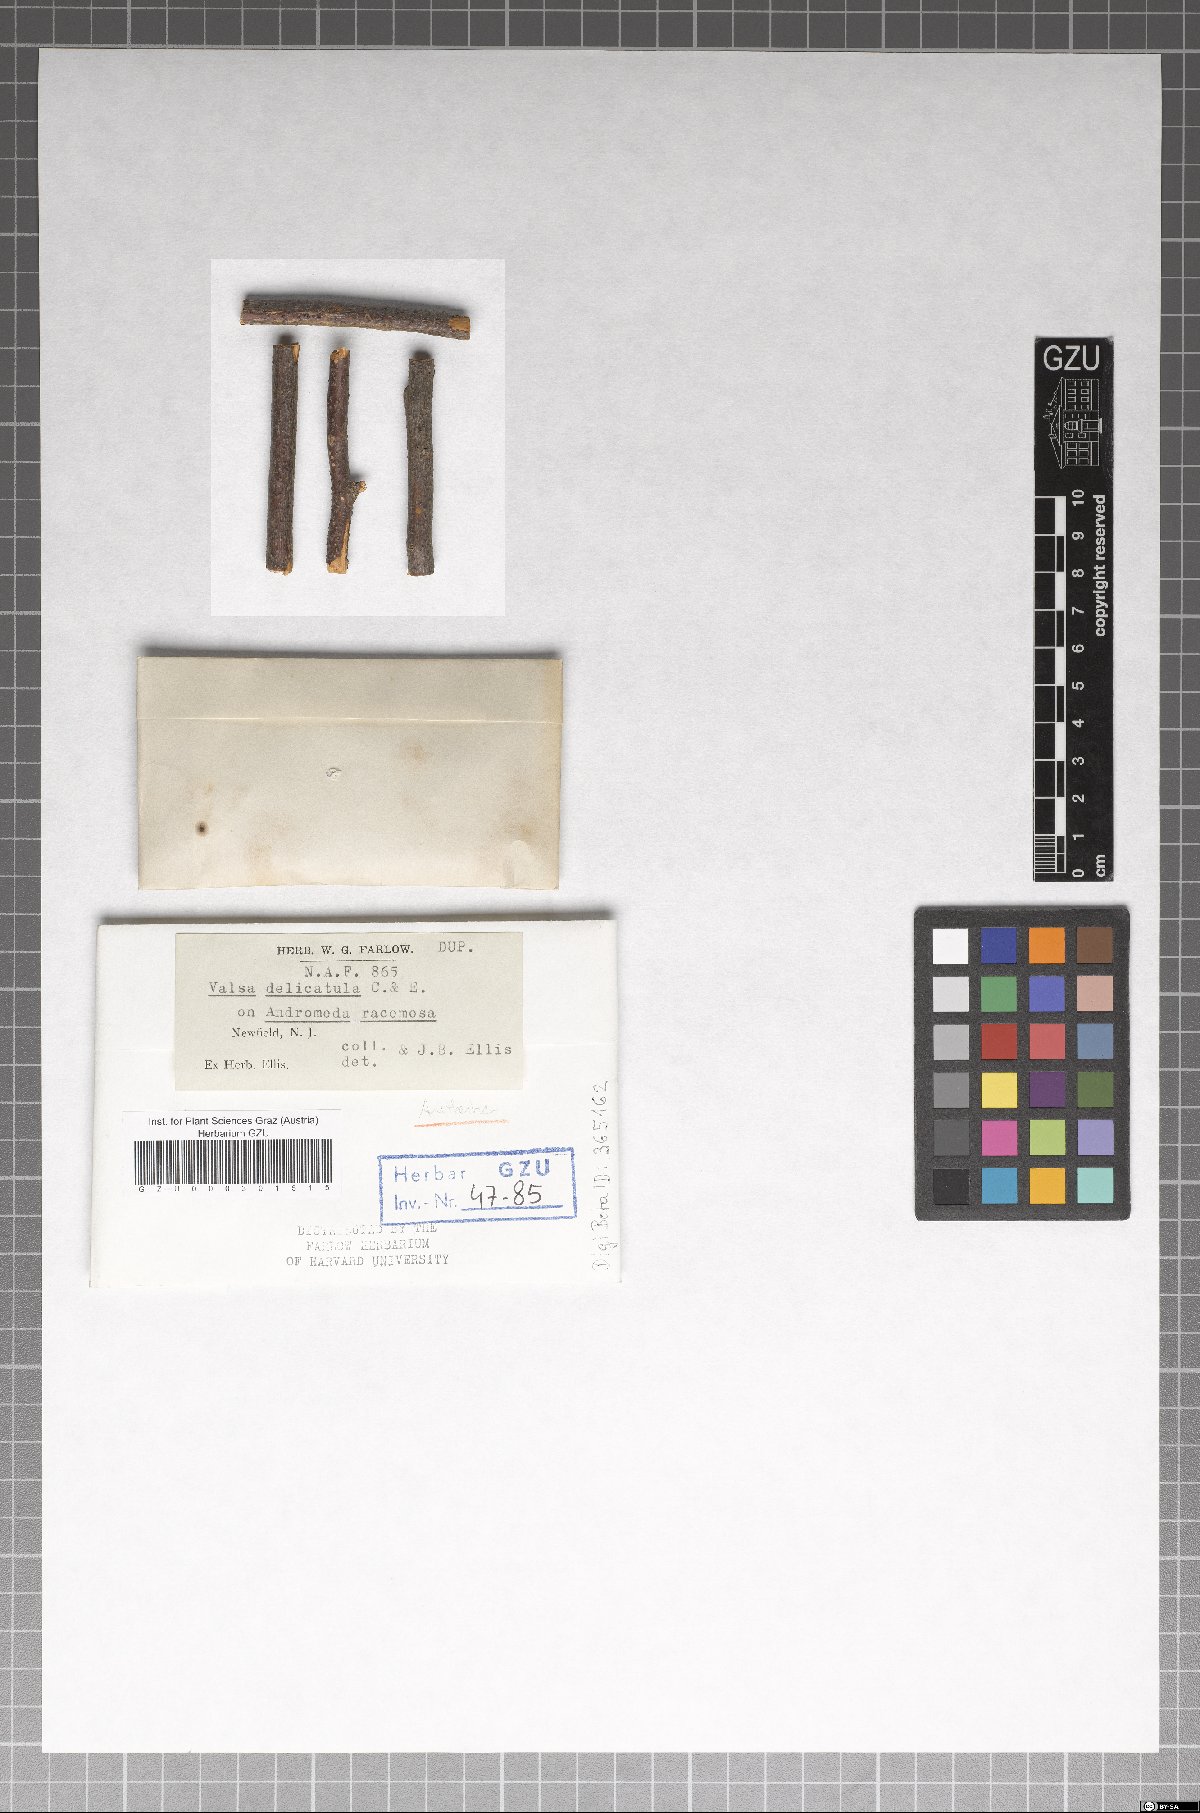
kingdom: Fungi
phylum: Ascomycota
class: Sordariomycetes
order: Diaporthales
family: Valsaceae
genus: Valsa
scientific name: Valsa
